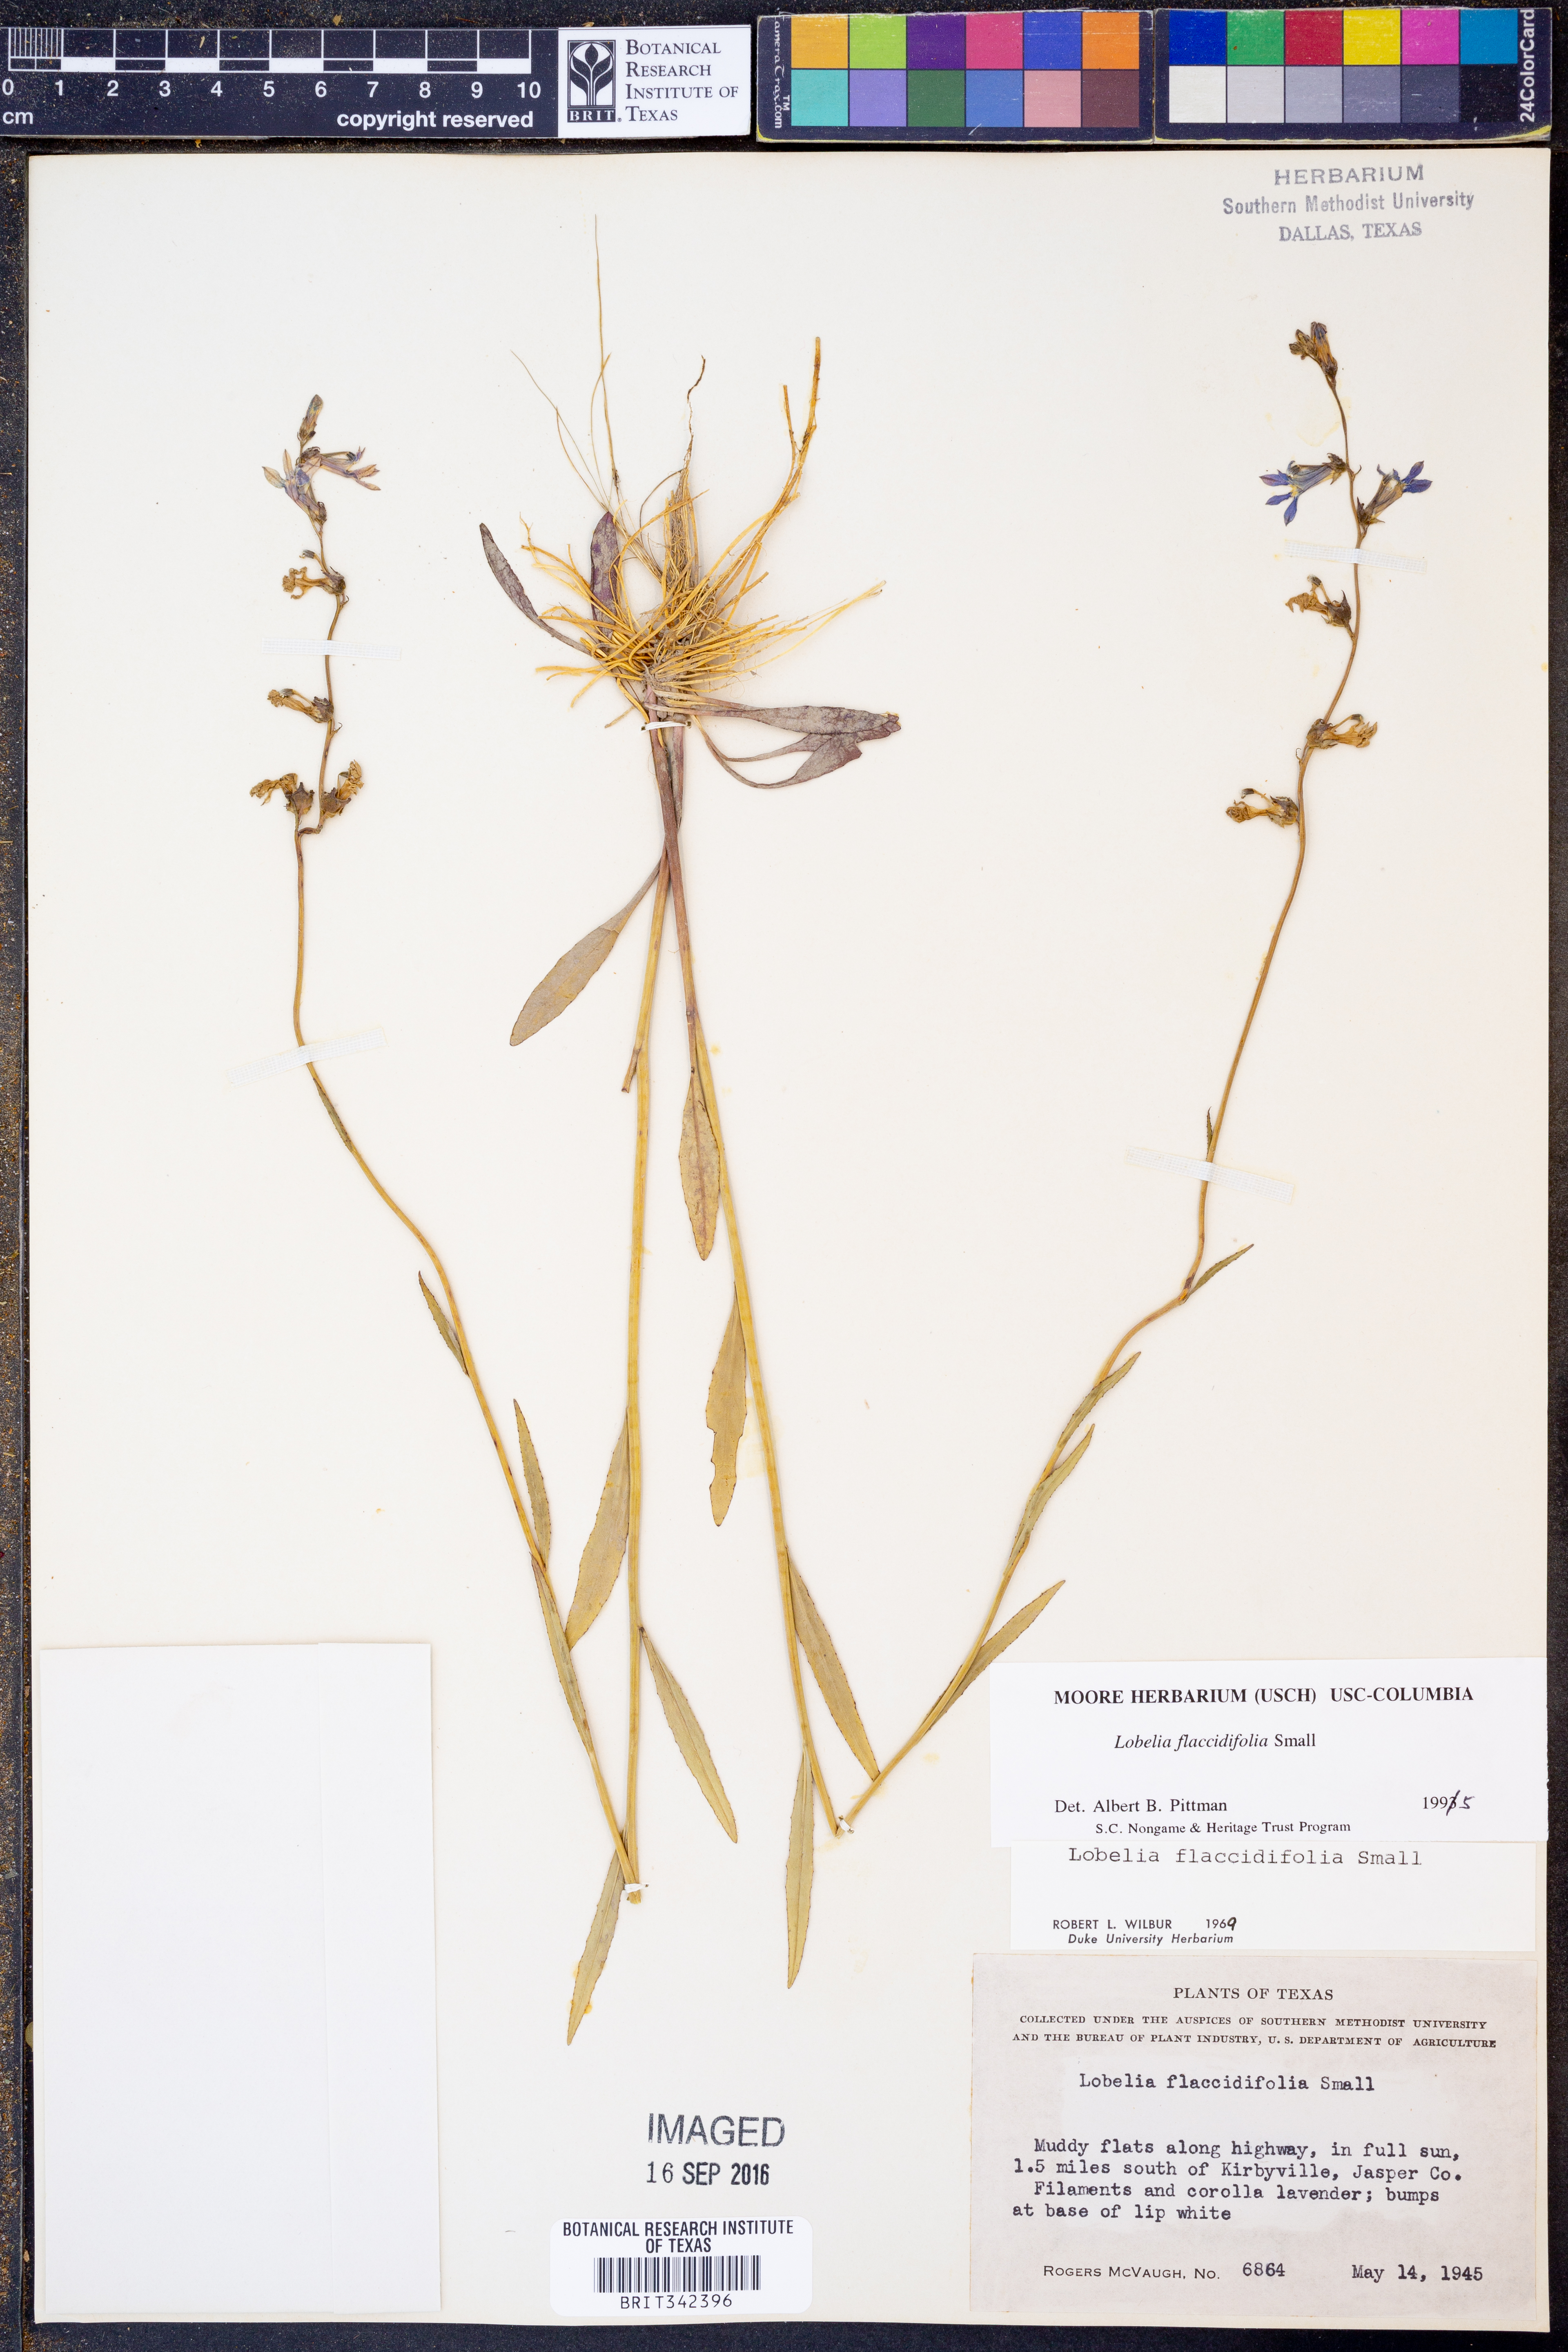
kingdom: Plantae
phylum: Tracheophyta
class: Magnoliopsida
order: Asterales
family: Campanulaceae
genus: Lobelia
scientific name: Lobelia flaccidifolia
